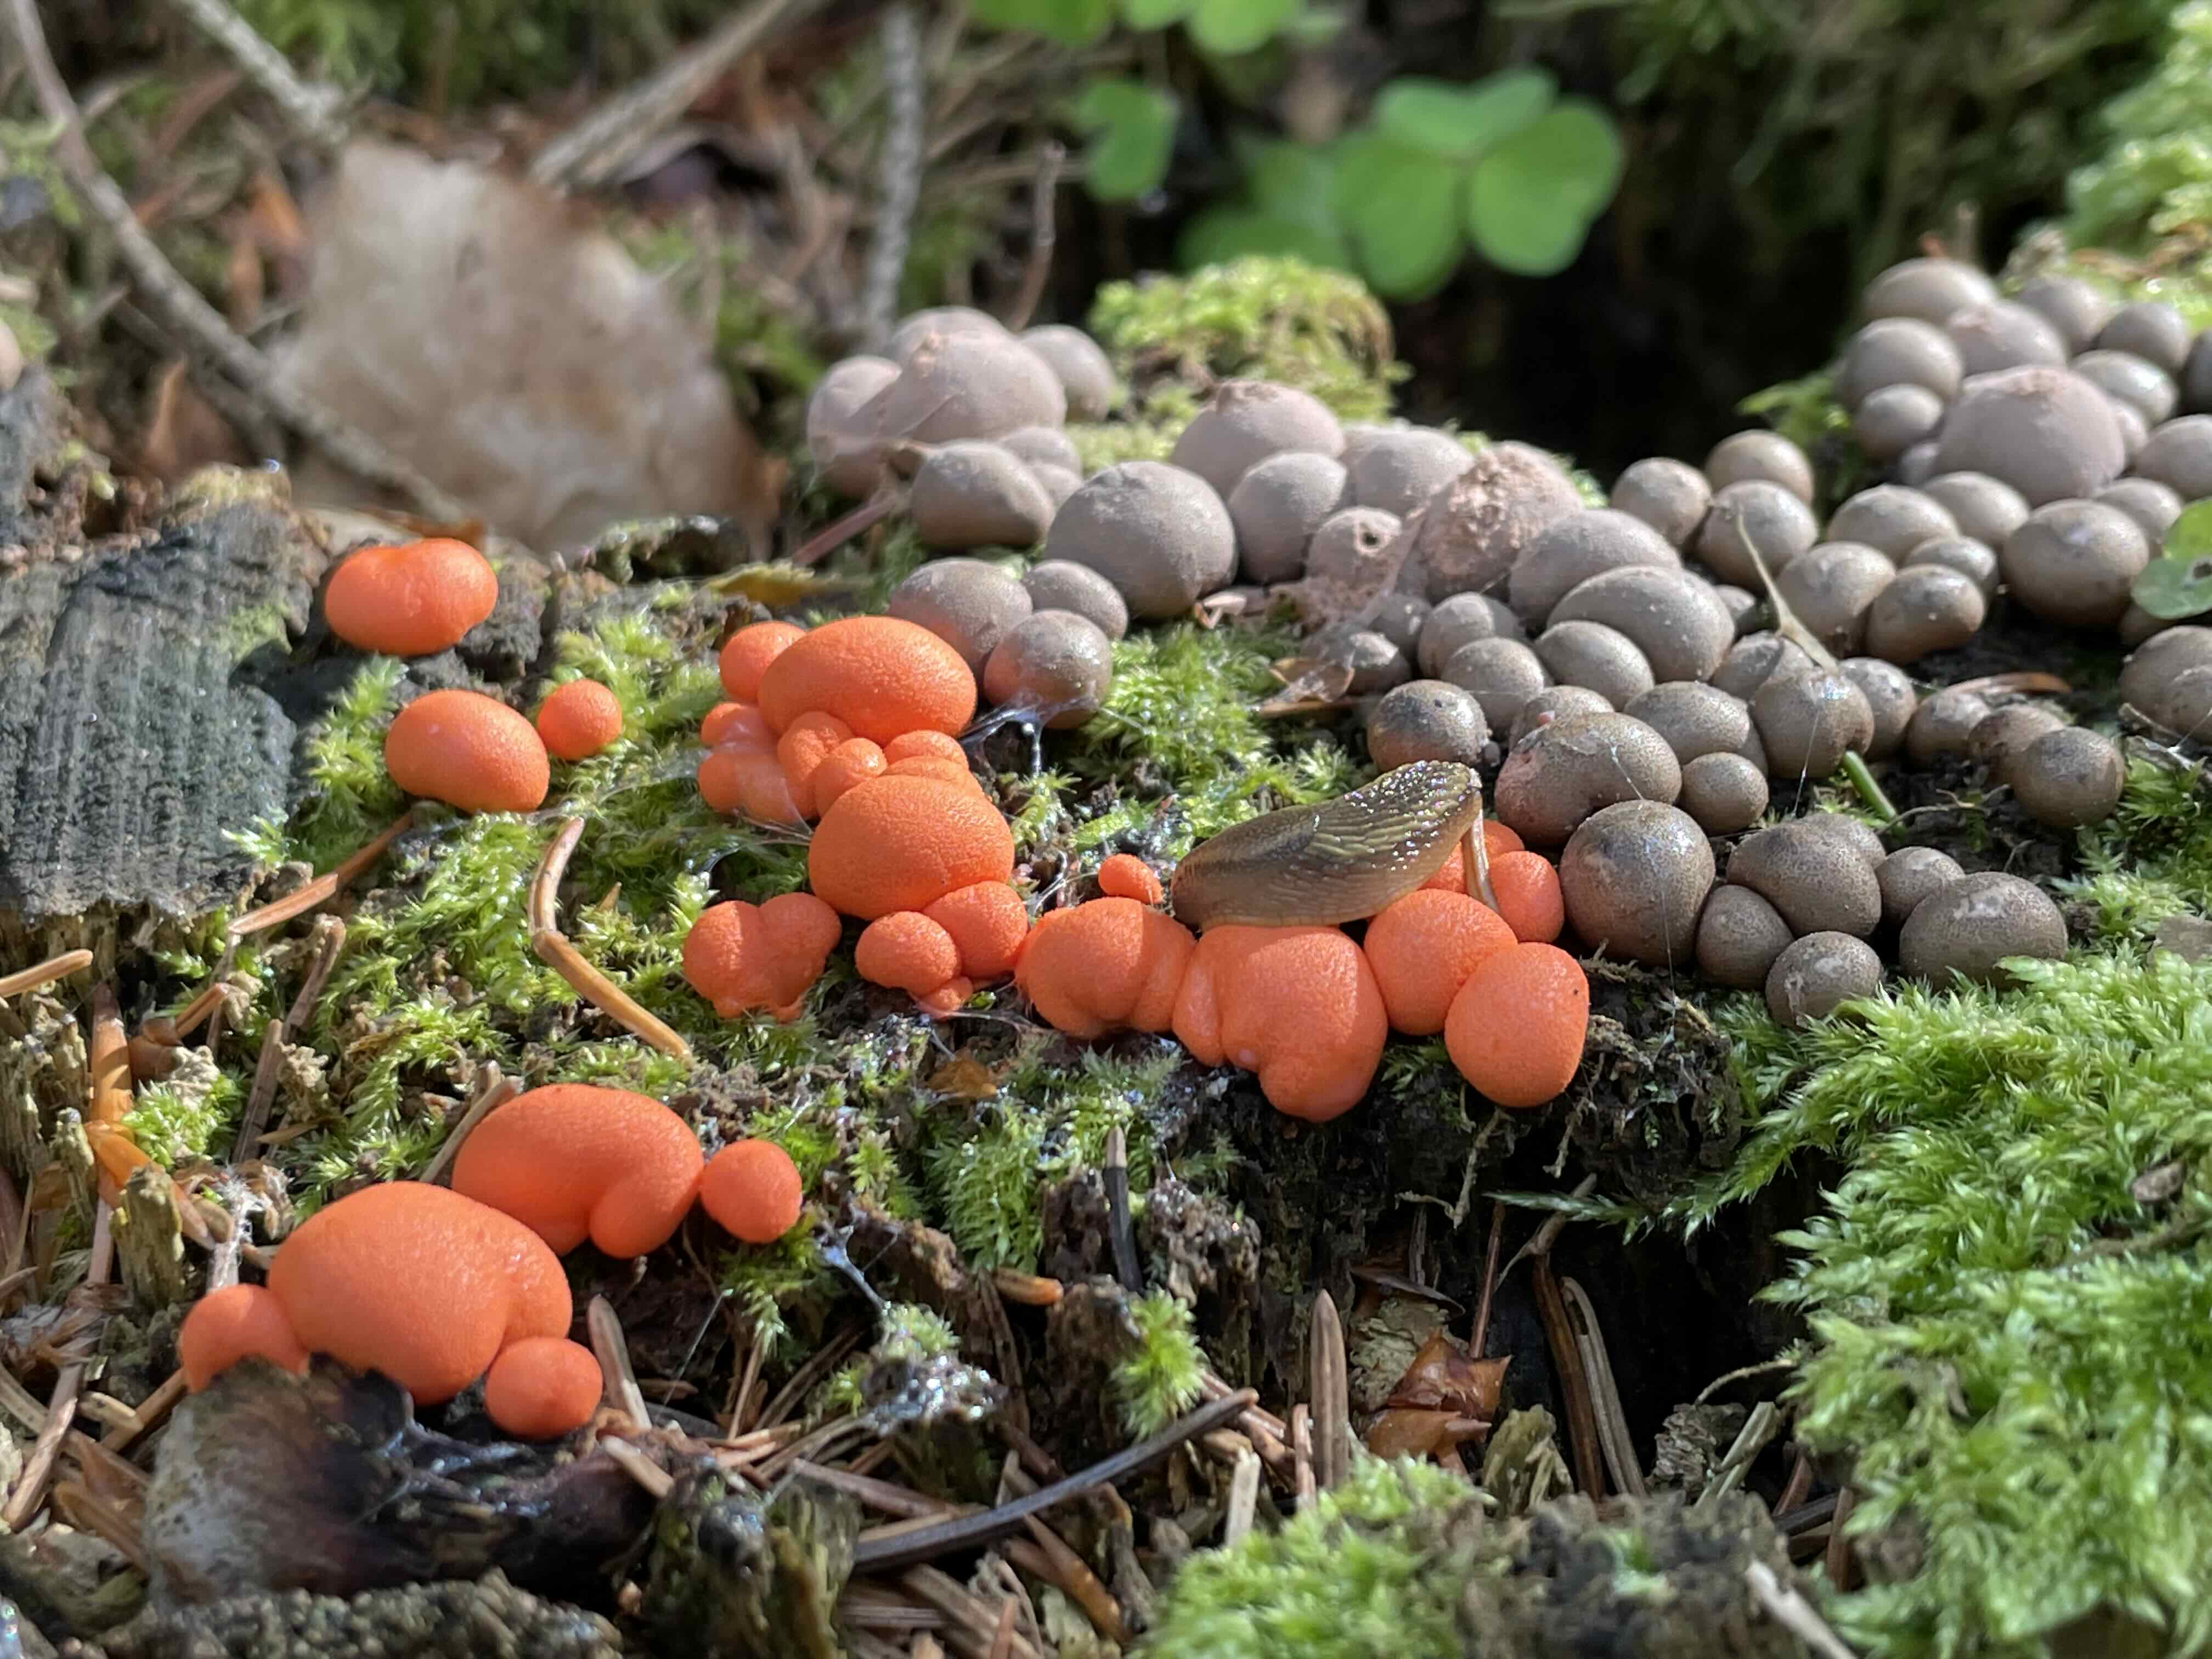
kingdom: Protozoa
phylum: Mycetozoa
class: Myxomycetes
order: Cribrariales
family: Tubiferaceae
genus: Lycogala
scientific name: Lycogala epidendrum
